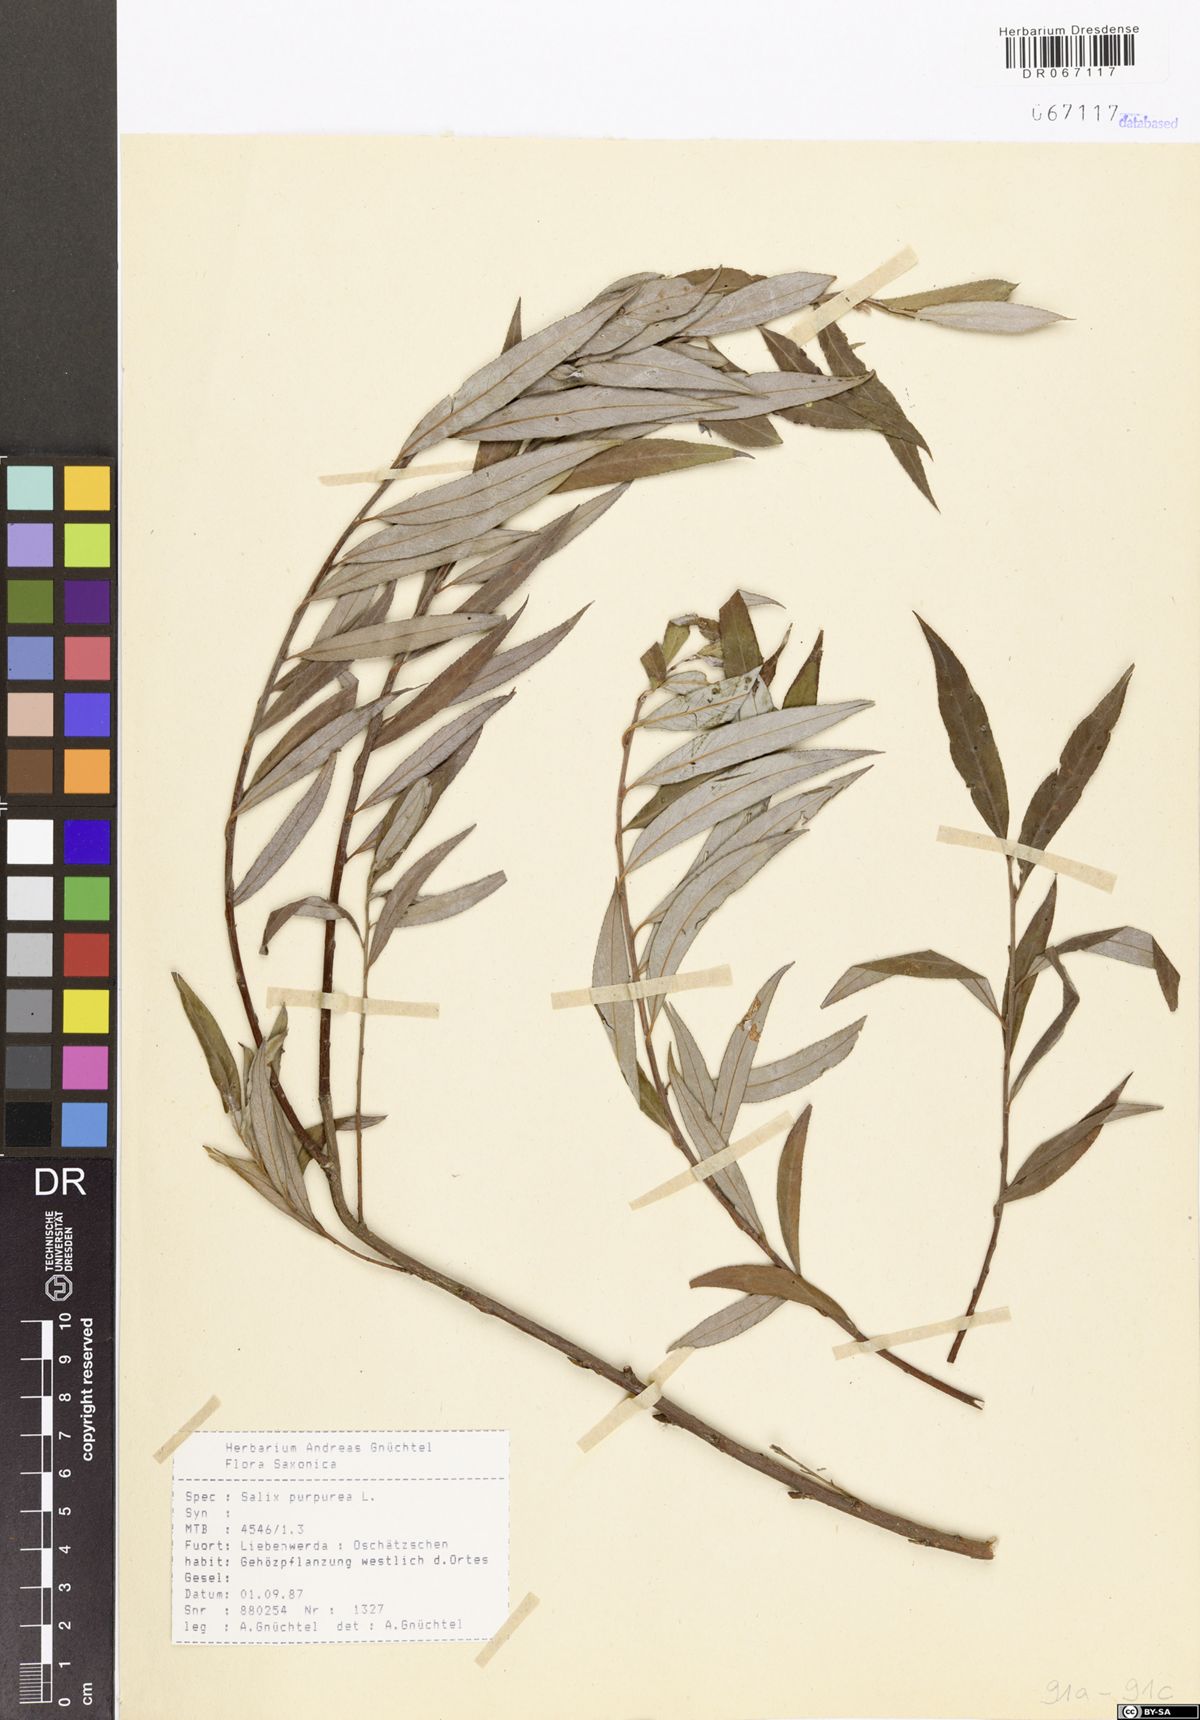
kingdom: Plantae
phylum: Tracheophyta
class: Magnoliopsida
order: Malpighiales
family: Salicaceae
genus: Salix
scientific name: Salix purpurea
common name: Purple willow
